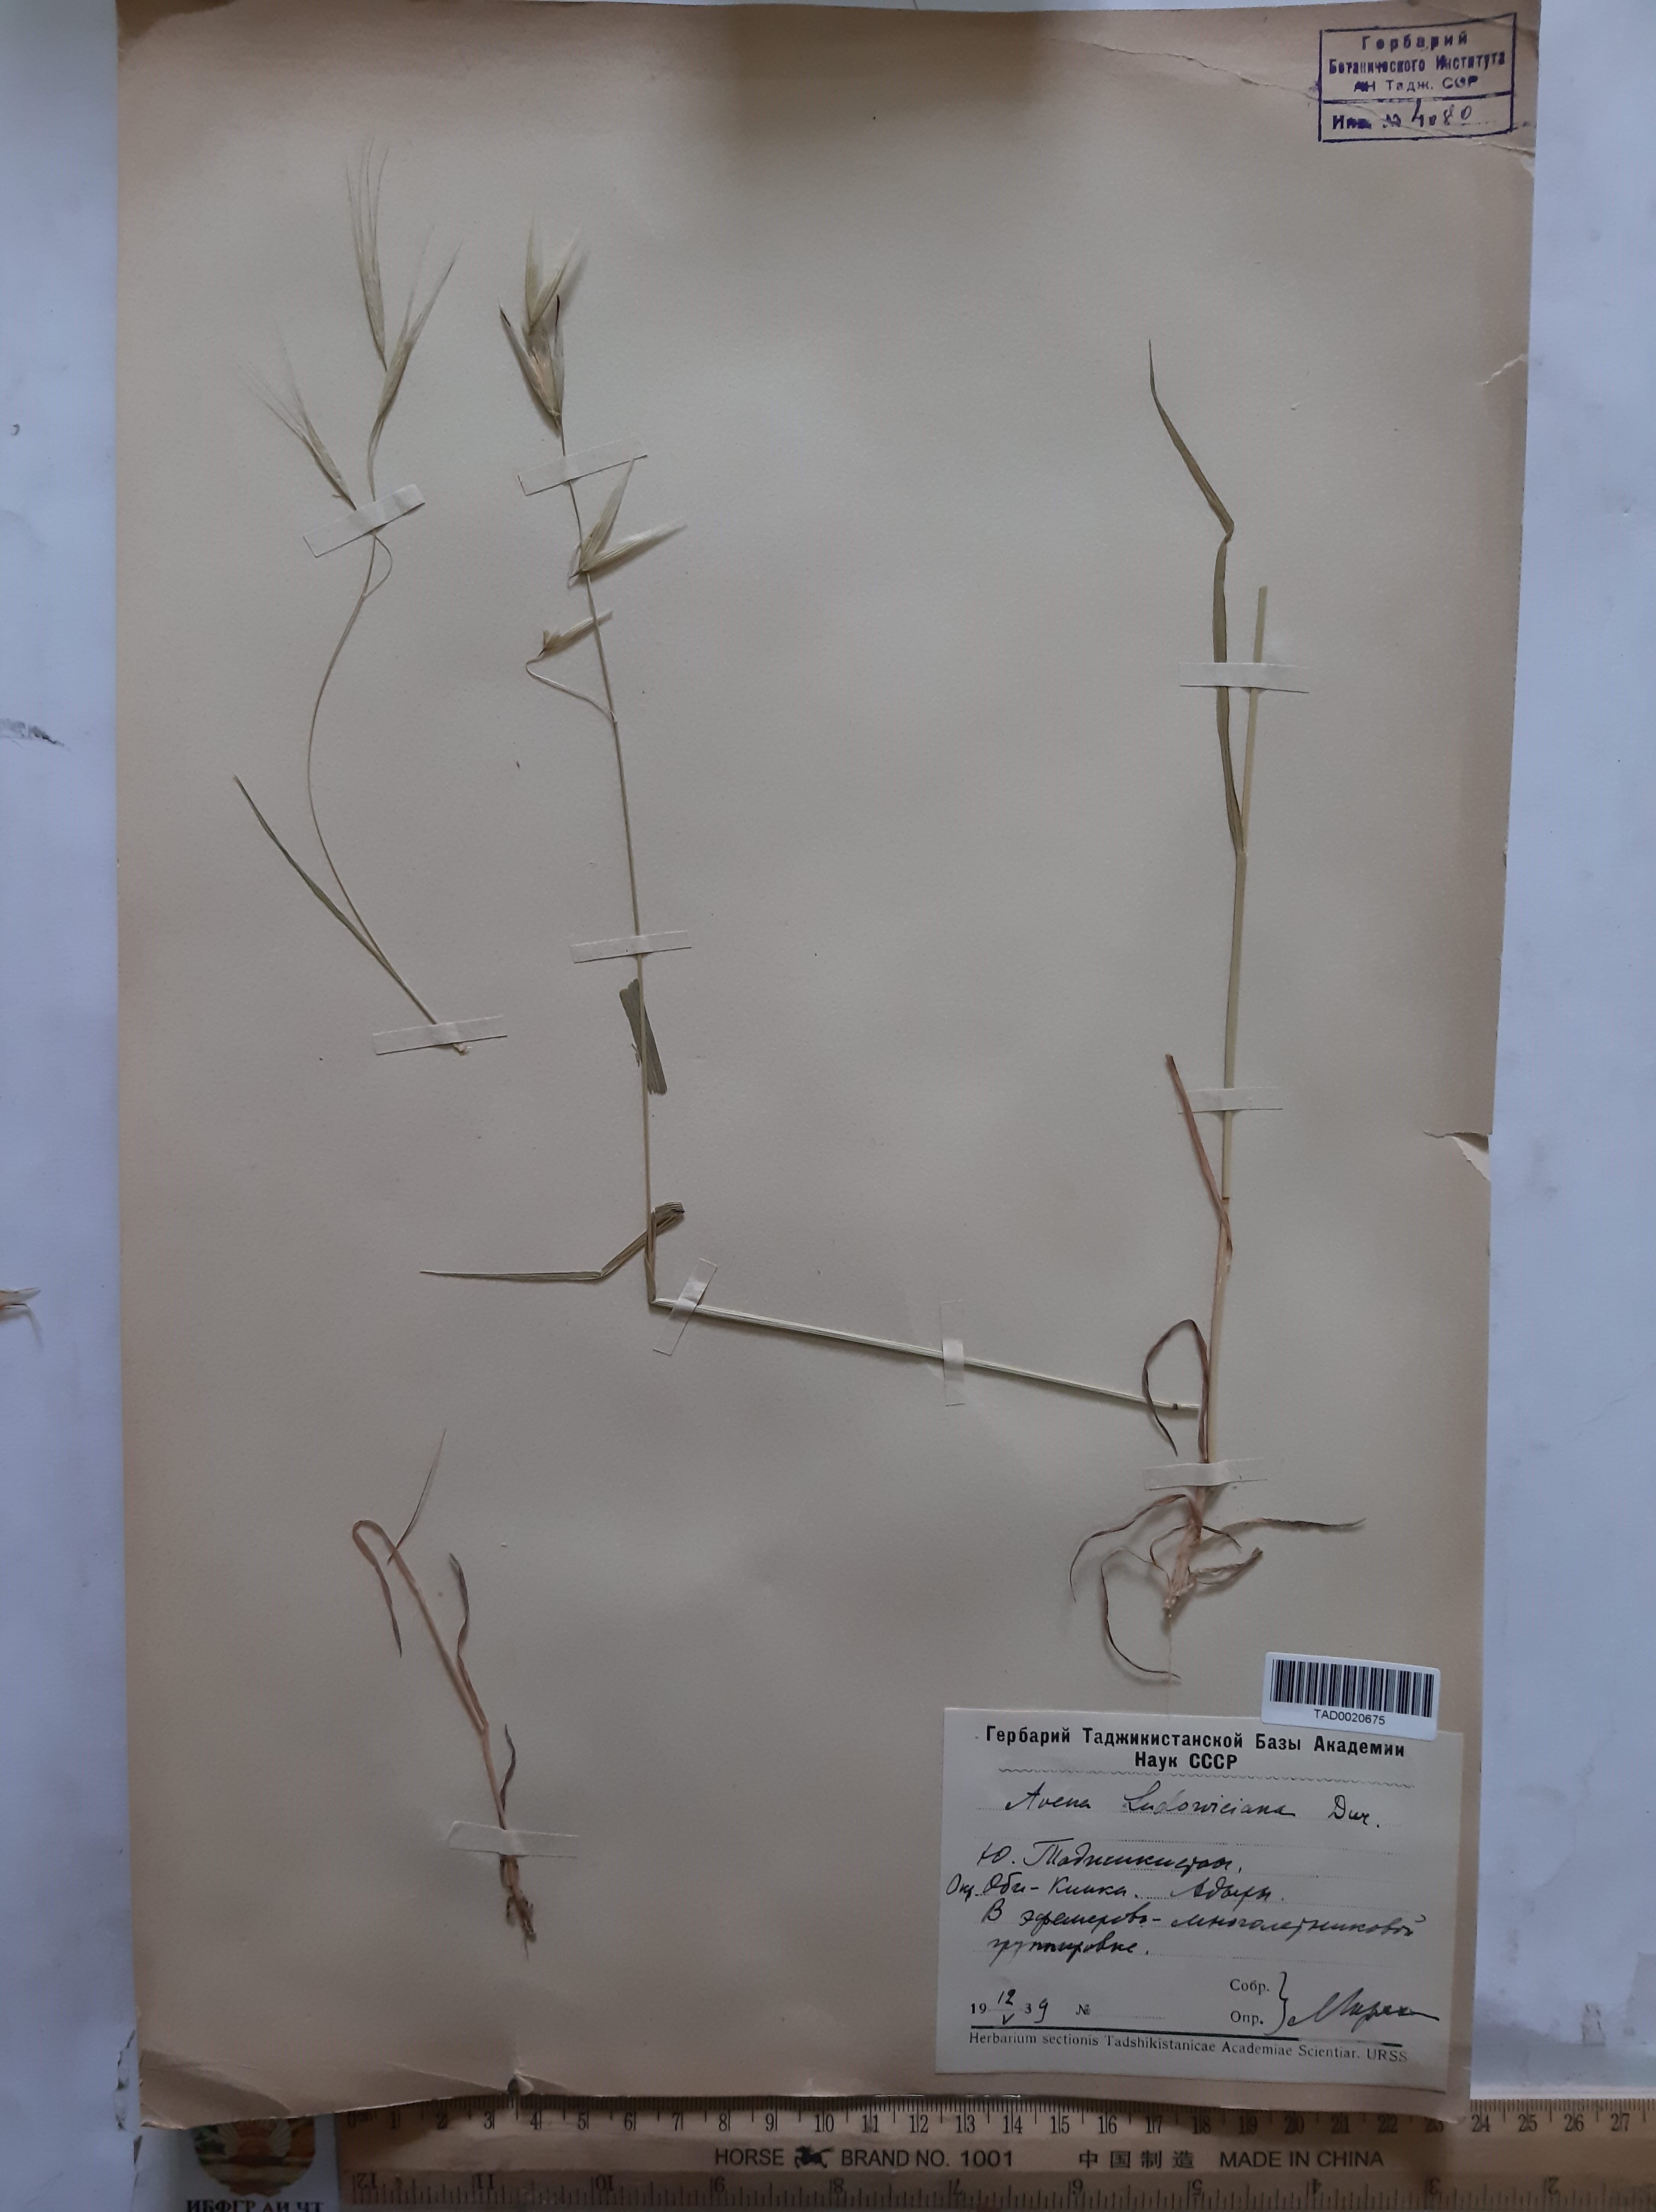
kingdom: Plantae
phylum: Tracheophyta
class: Liliopsida
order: Poales
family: Poaceae
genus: Avena
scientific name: Avena sterilis
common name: Animated oat
